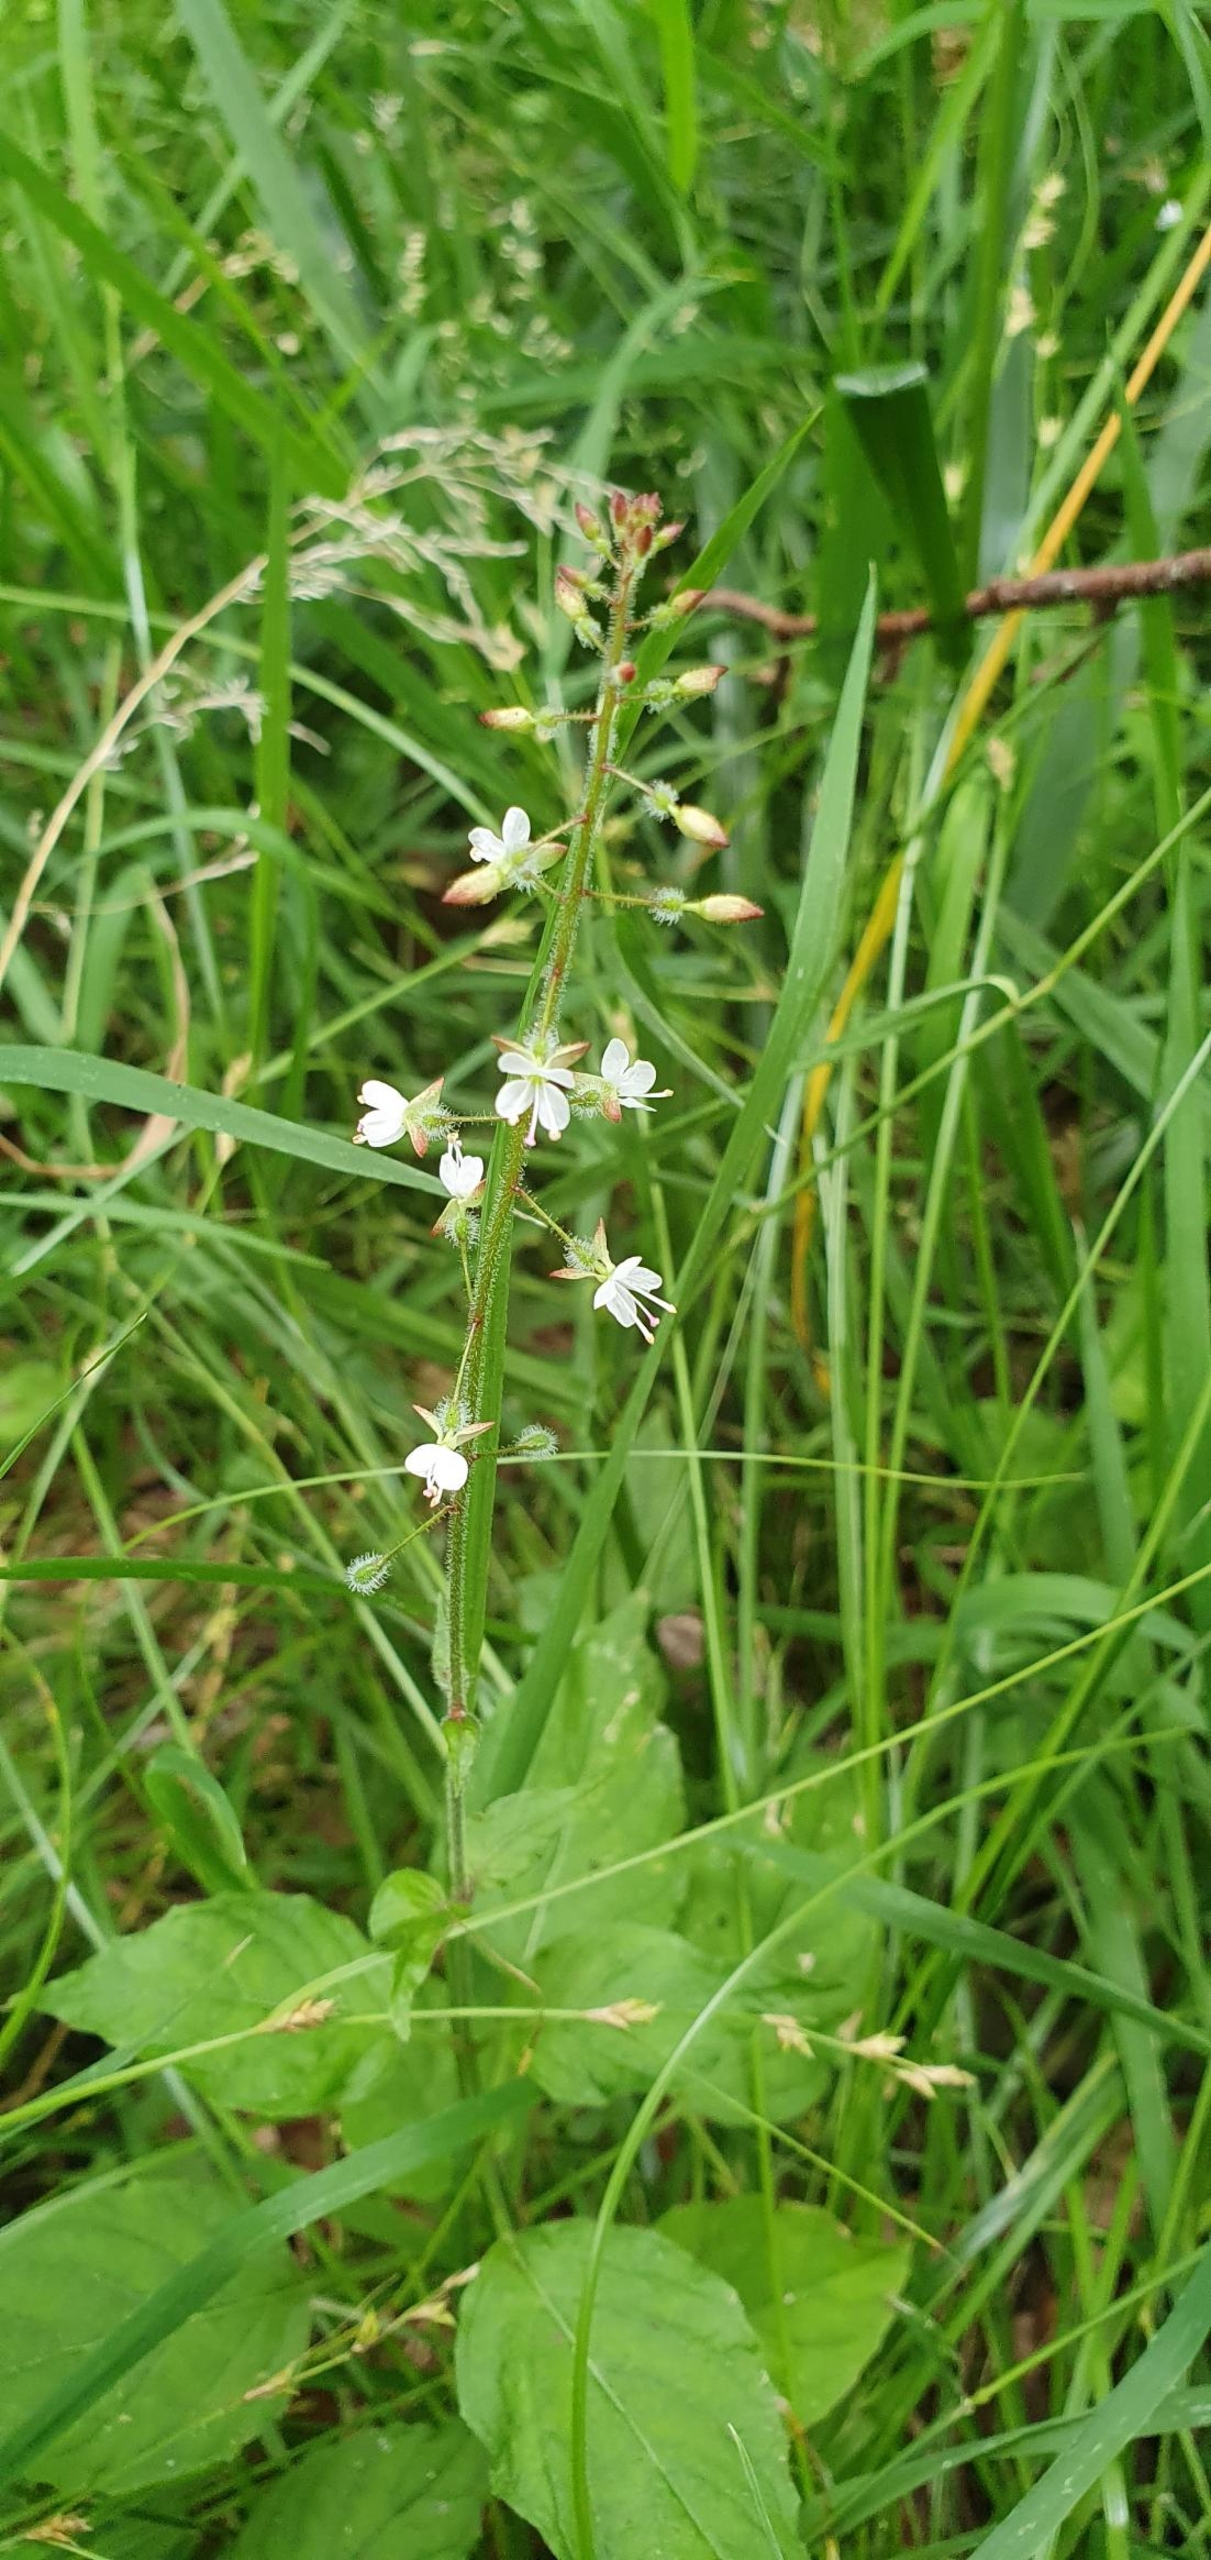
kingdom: Plantae
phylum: Tracheophyta
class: Magnoliopsida
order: Myrtales
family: Onagraceae
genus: Circaea
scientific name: Circaea lutetiana
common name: Dunet steffensurt
